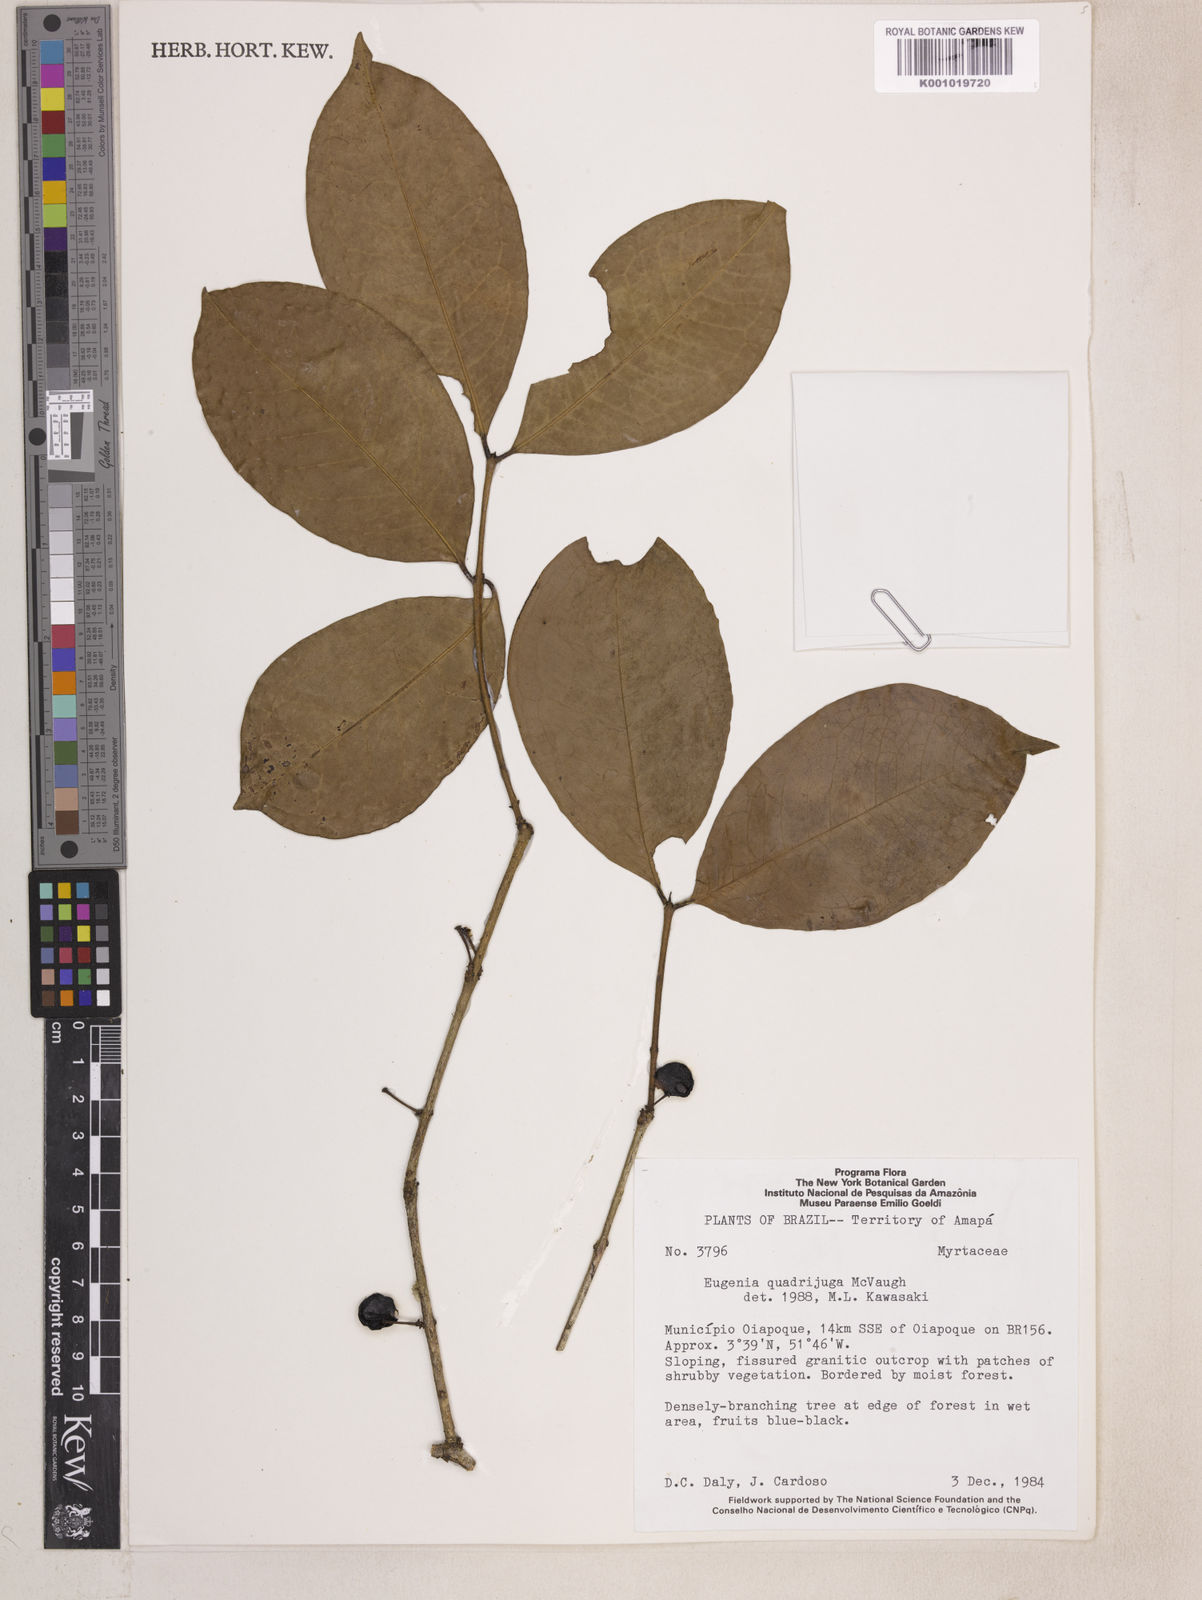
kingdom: Plantae
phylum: Tracheophyta
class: Magnoliopsida
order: Myrtales
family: Myrtaceae
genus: Eugenia
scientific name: Eugenia quadrijuga
